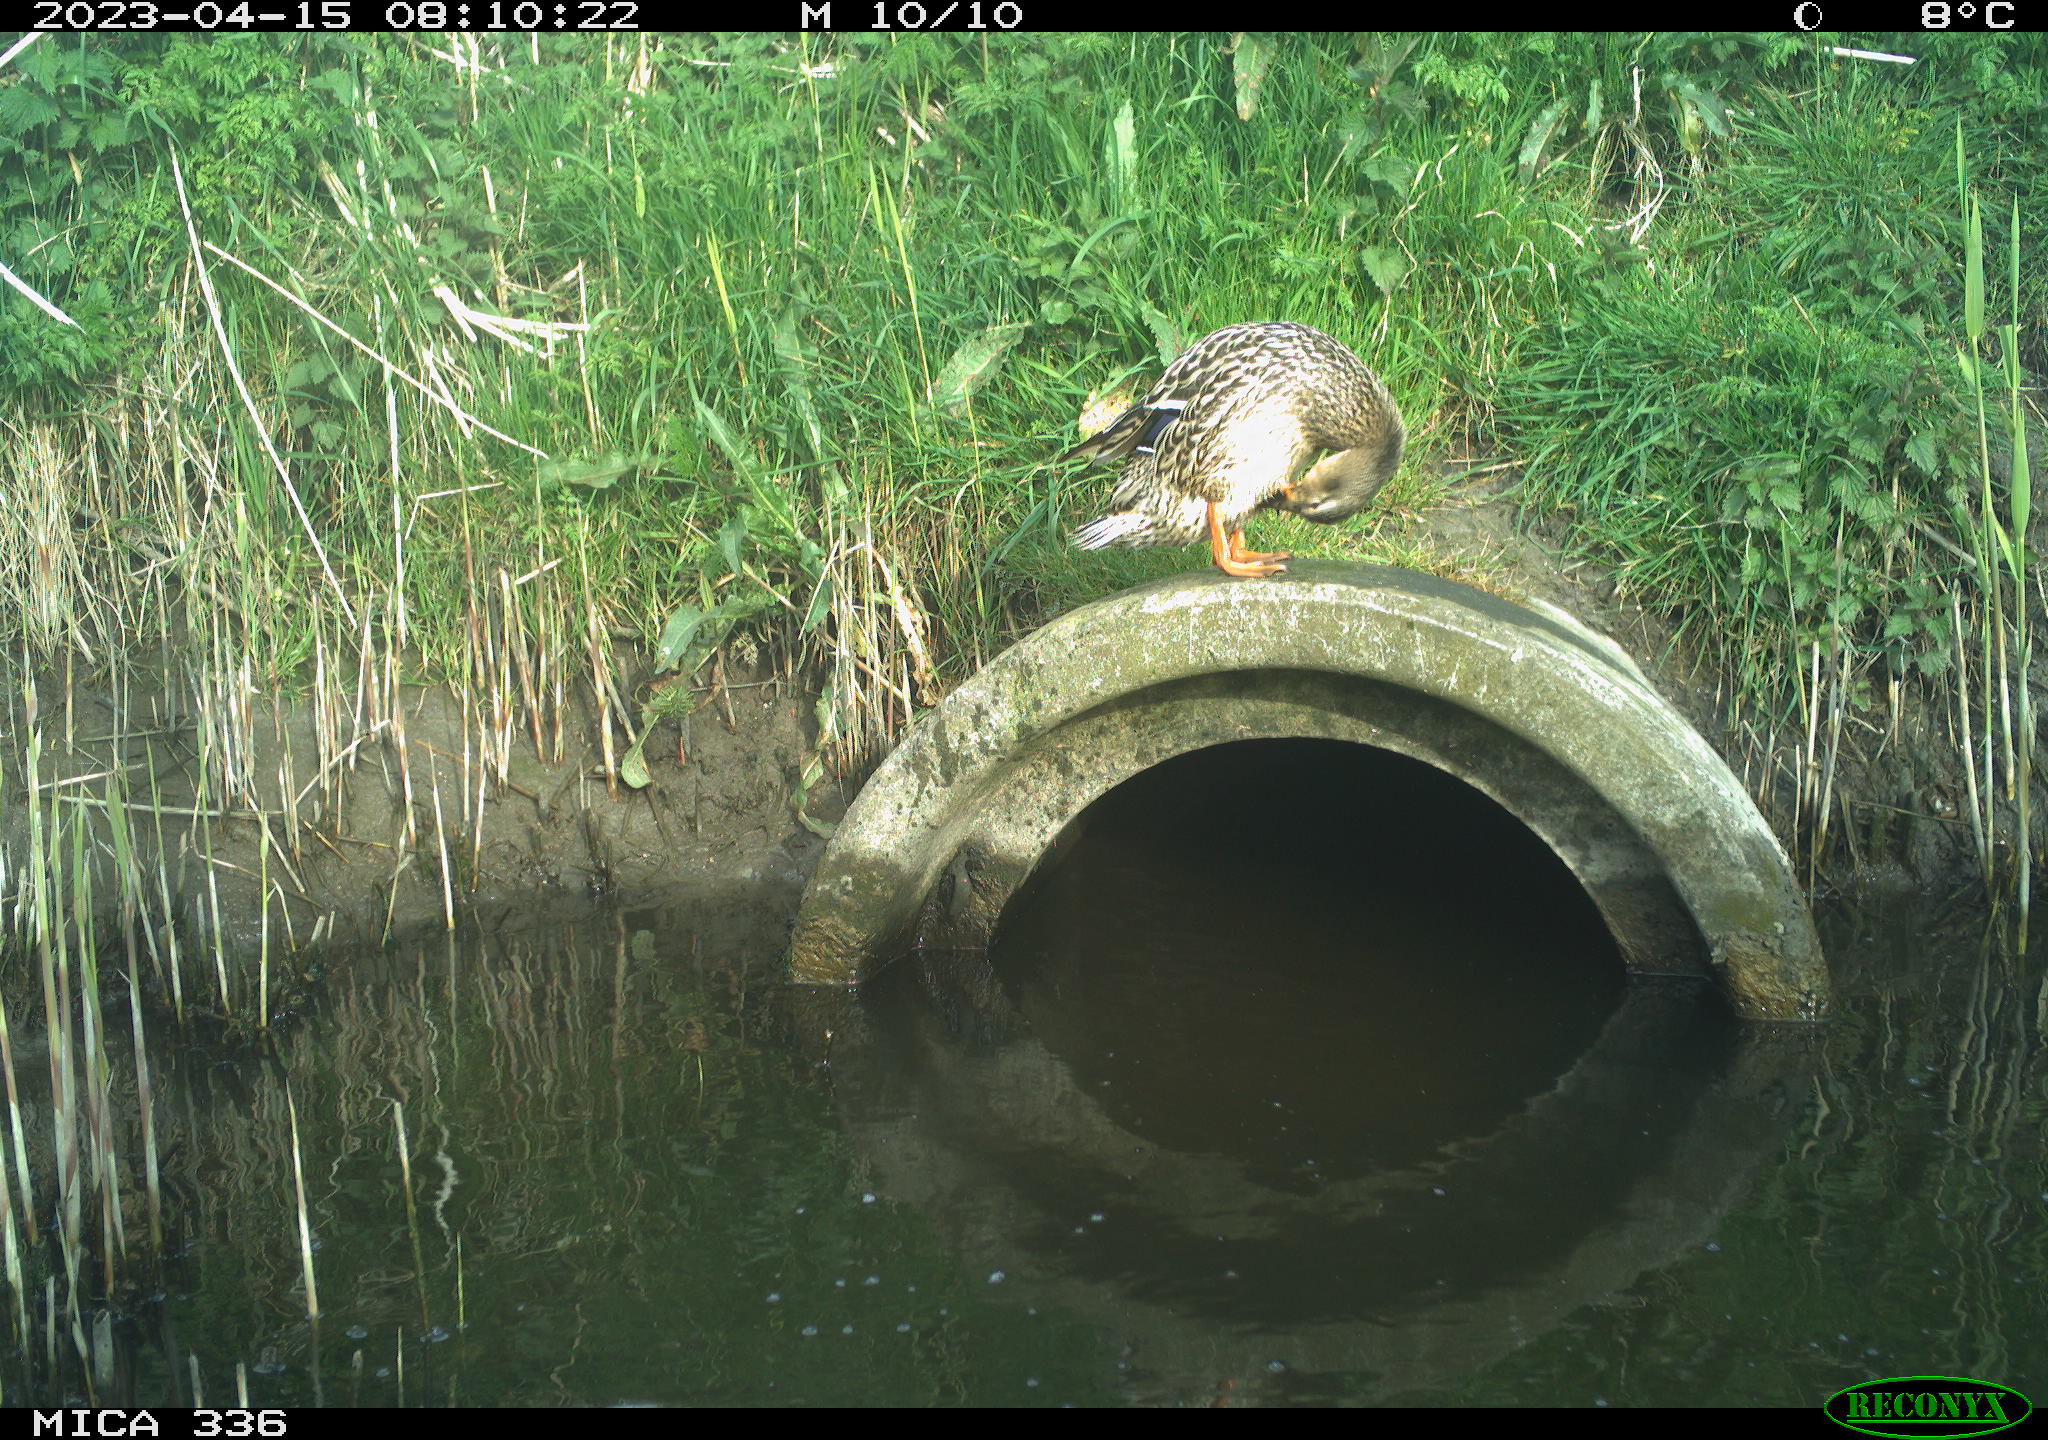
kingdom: Animalia
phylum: Chordata
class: Aves
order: Anseriformes
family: Anatidae
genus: Anas
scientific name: Anas
